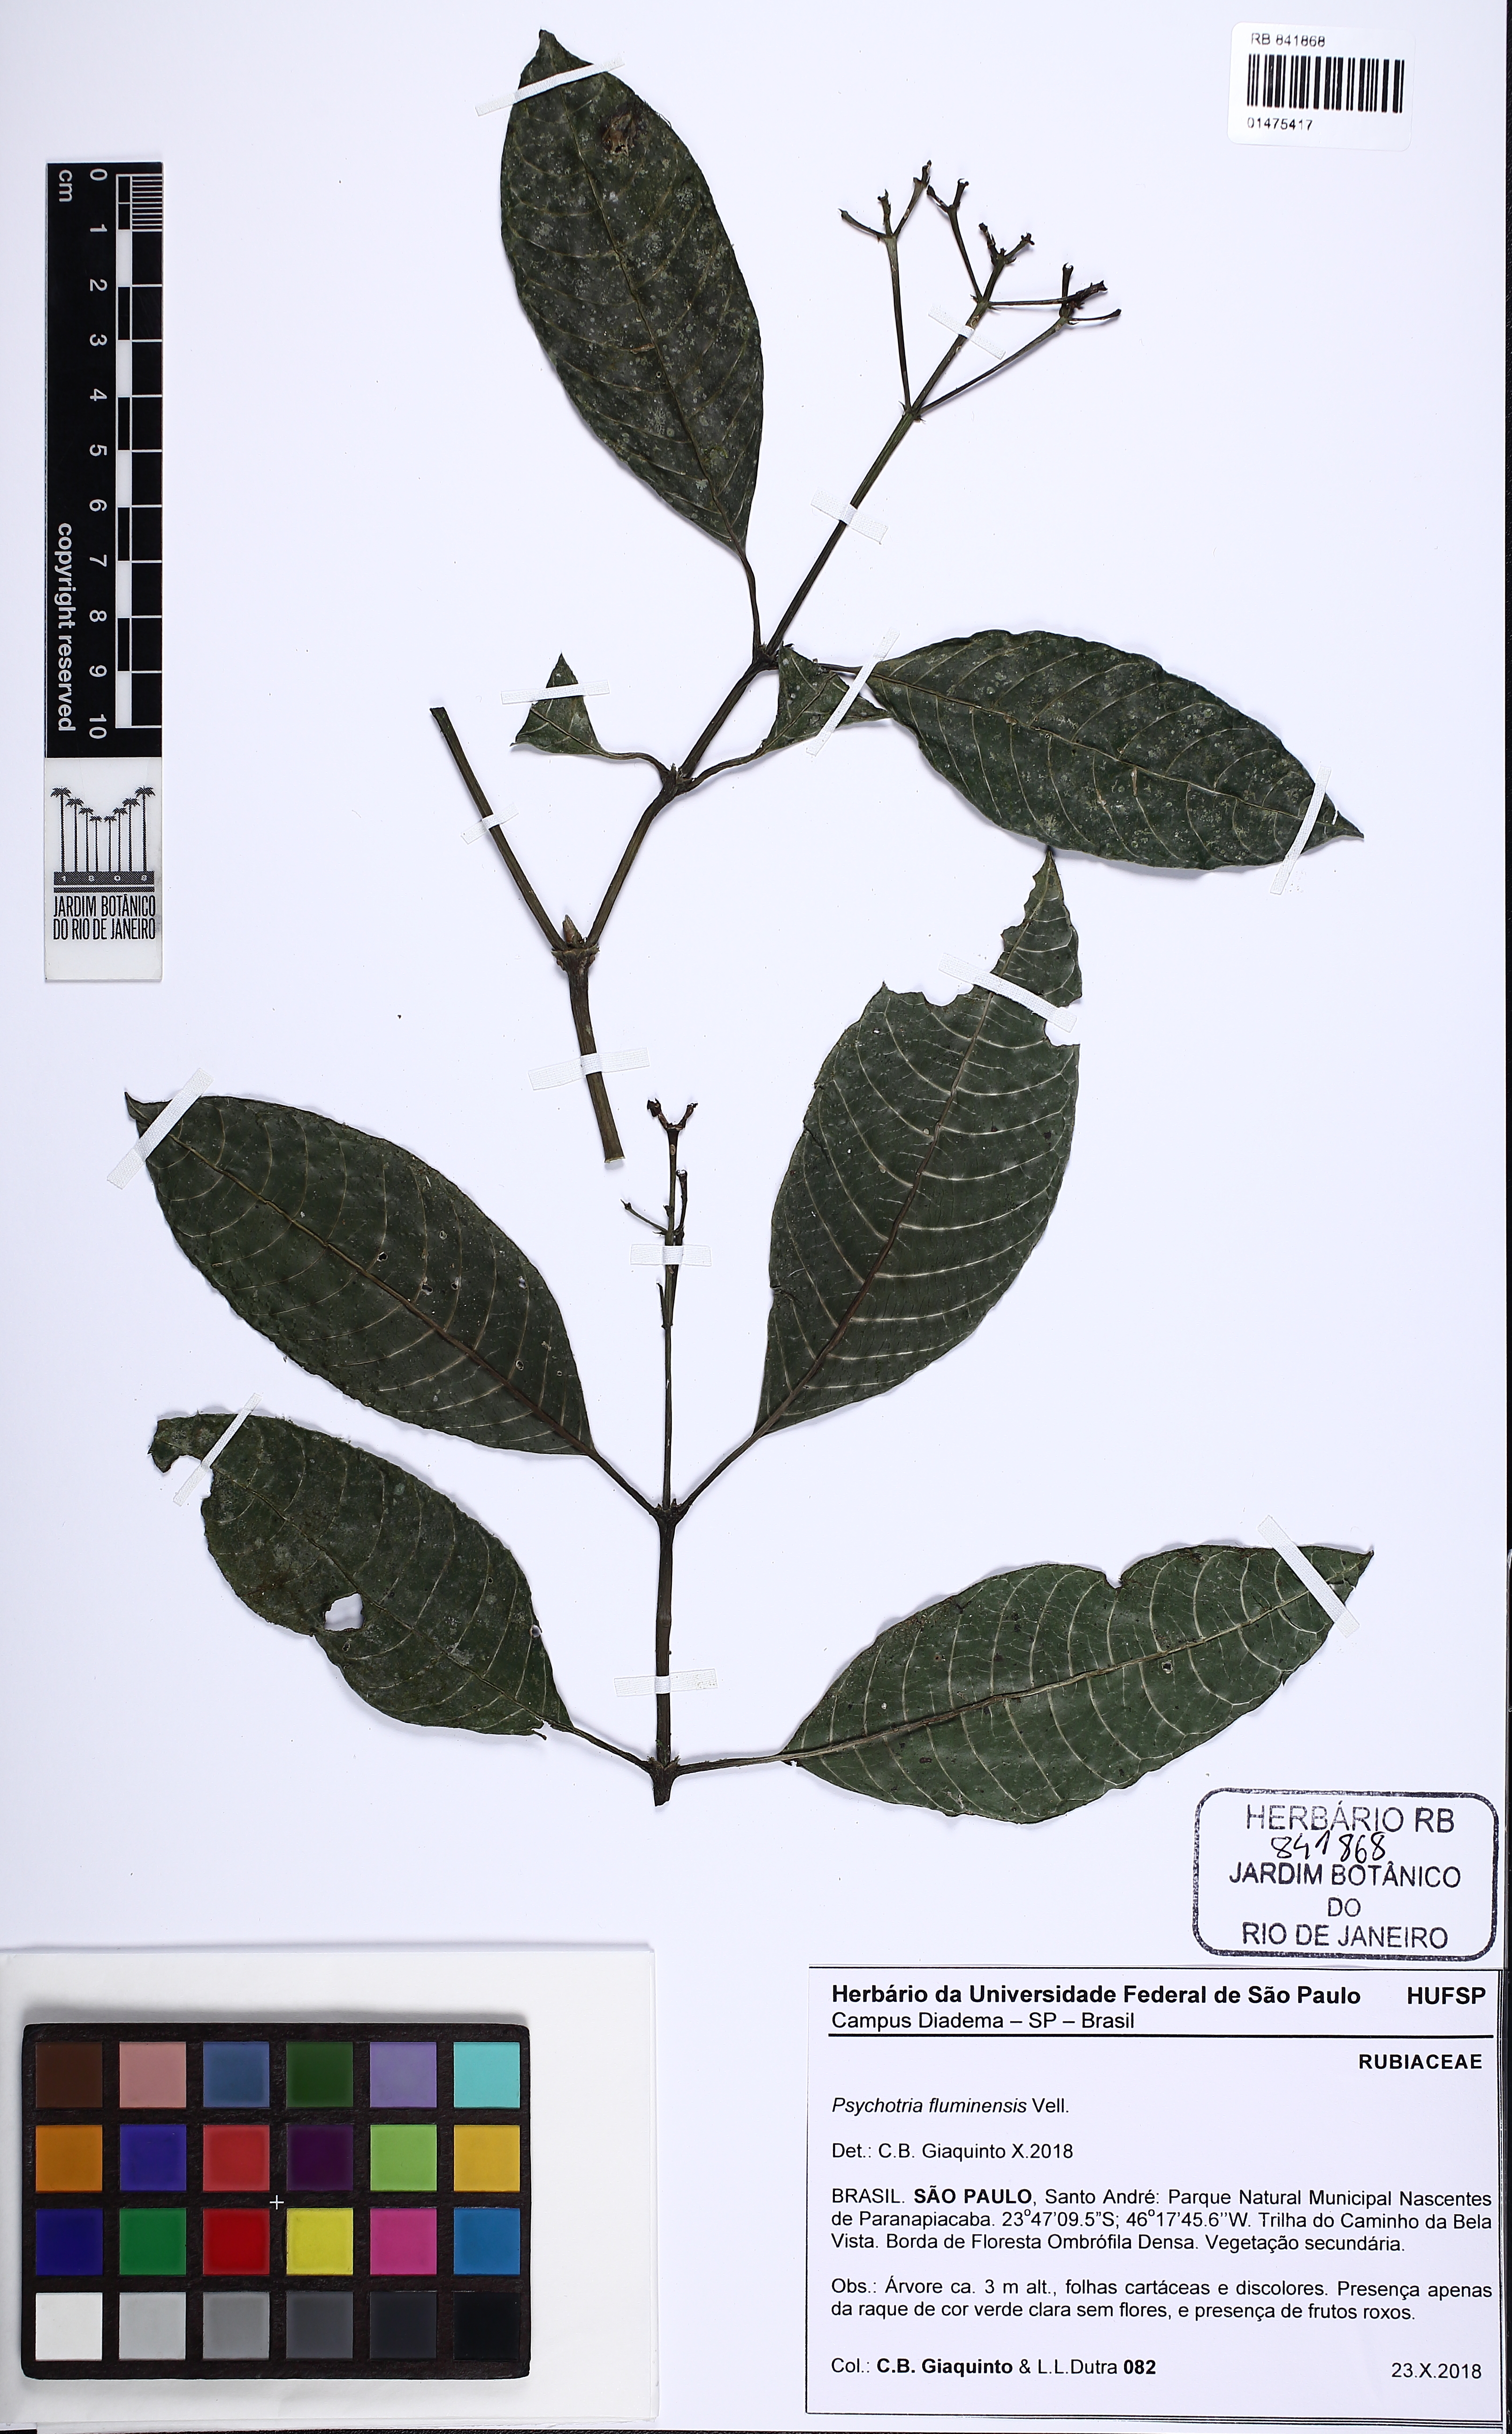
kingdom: Plantae
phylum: Tracheophyta
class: Magnoliopsida
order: Gentianales
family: Rubiaceae
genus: Psychotria
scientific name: Psychotria fluminensis
